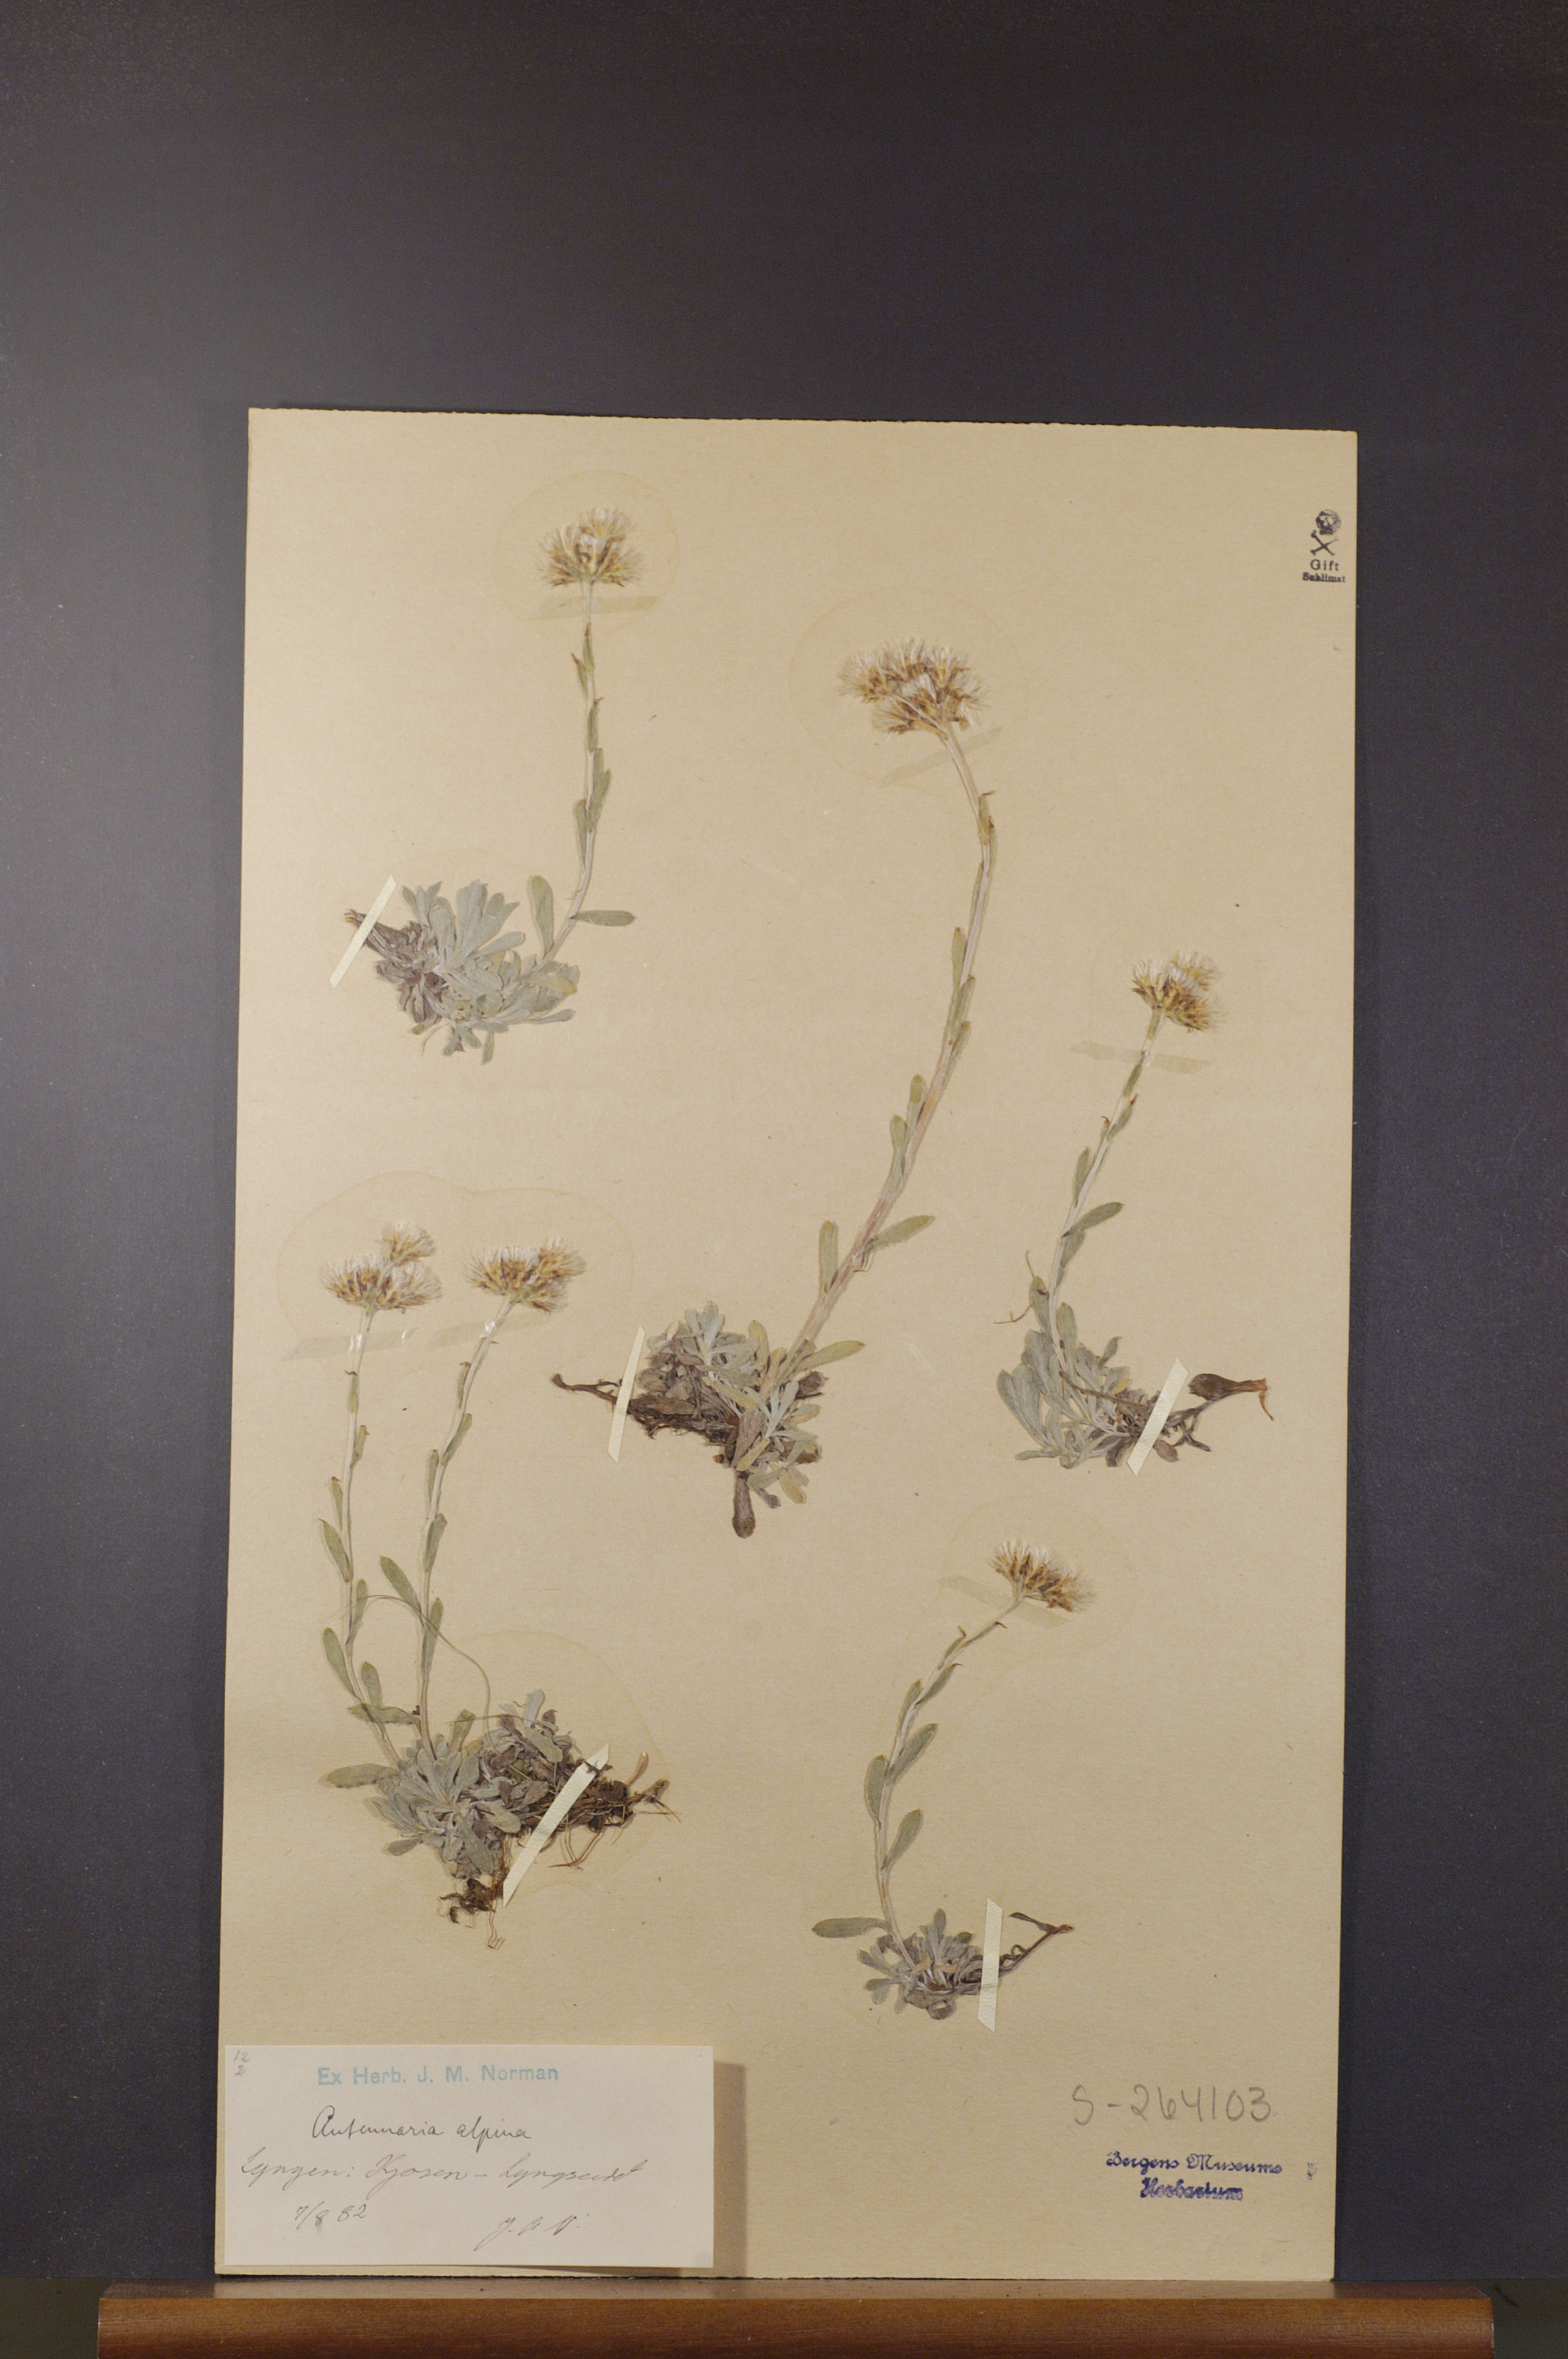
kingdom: Plantae
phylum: Tracheophyta
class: Magnoliopsida
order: Asterales
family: Asteraceae
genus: Antennaria
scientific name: Antennaria alpina
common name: Alpine pussytoes
